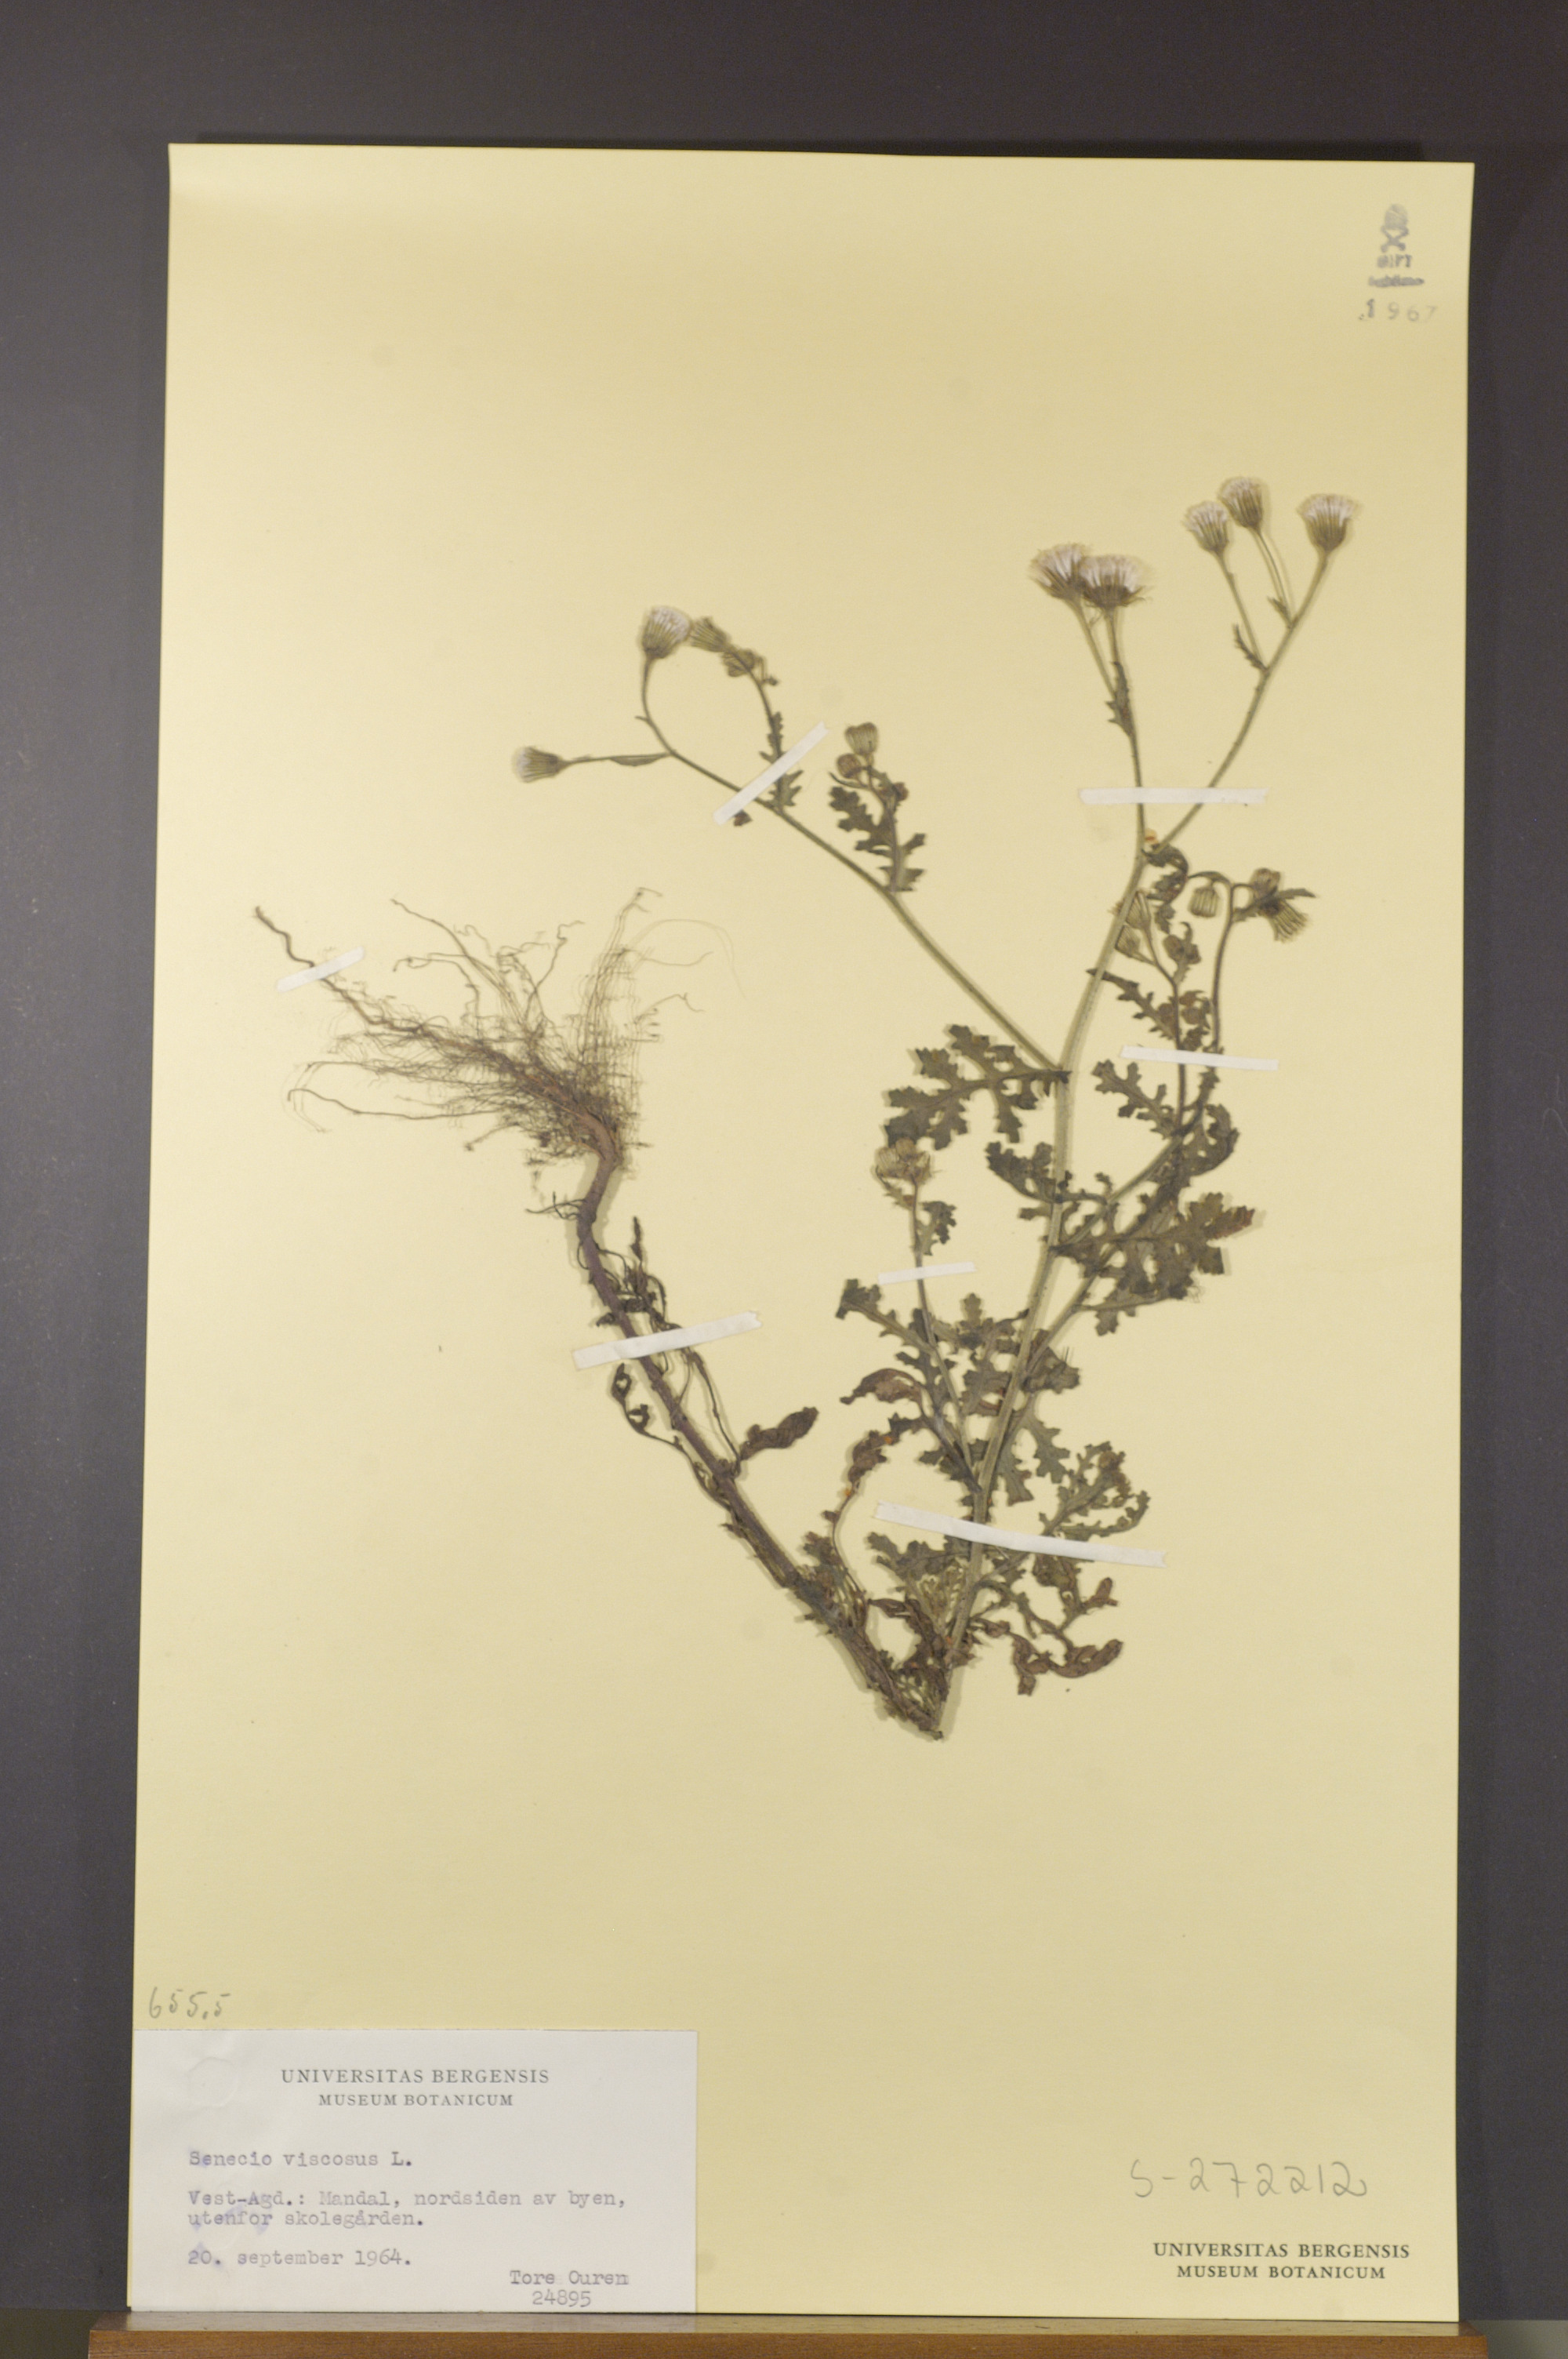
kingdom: Plantae
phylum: Tracheophyta
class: Magnoliopsida
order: Asterales
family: Asteraceae
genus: Senecio
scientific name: Senecio viscosus
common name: Sticky groundsel
